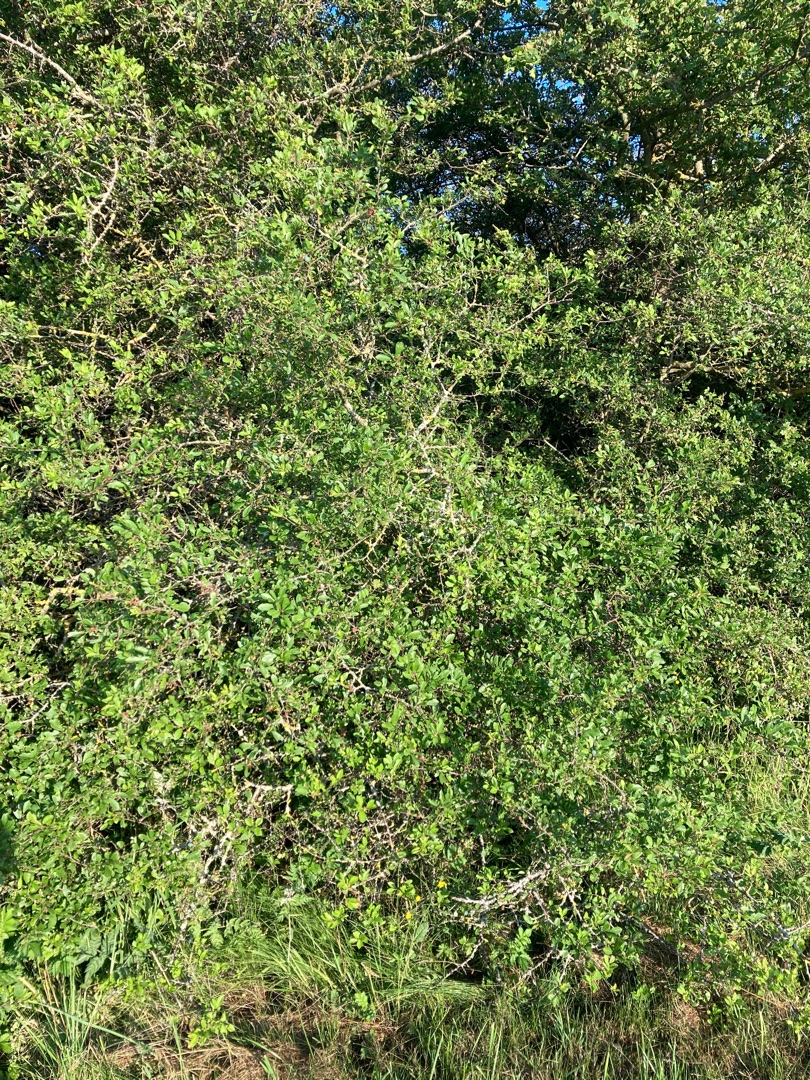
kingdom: Plantae
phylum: Tracheophyta
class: Magnoliopsida
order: Rosales
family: Rosaceae
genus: Prunus
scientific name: Prunus spinosa
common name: Slåen
